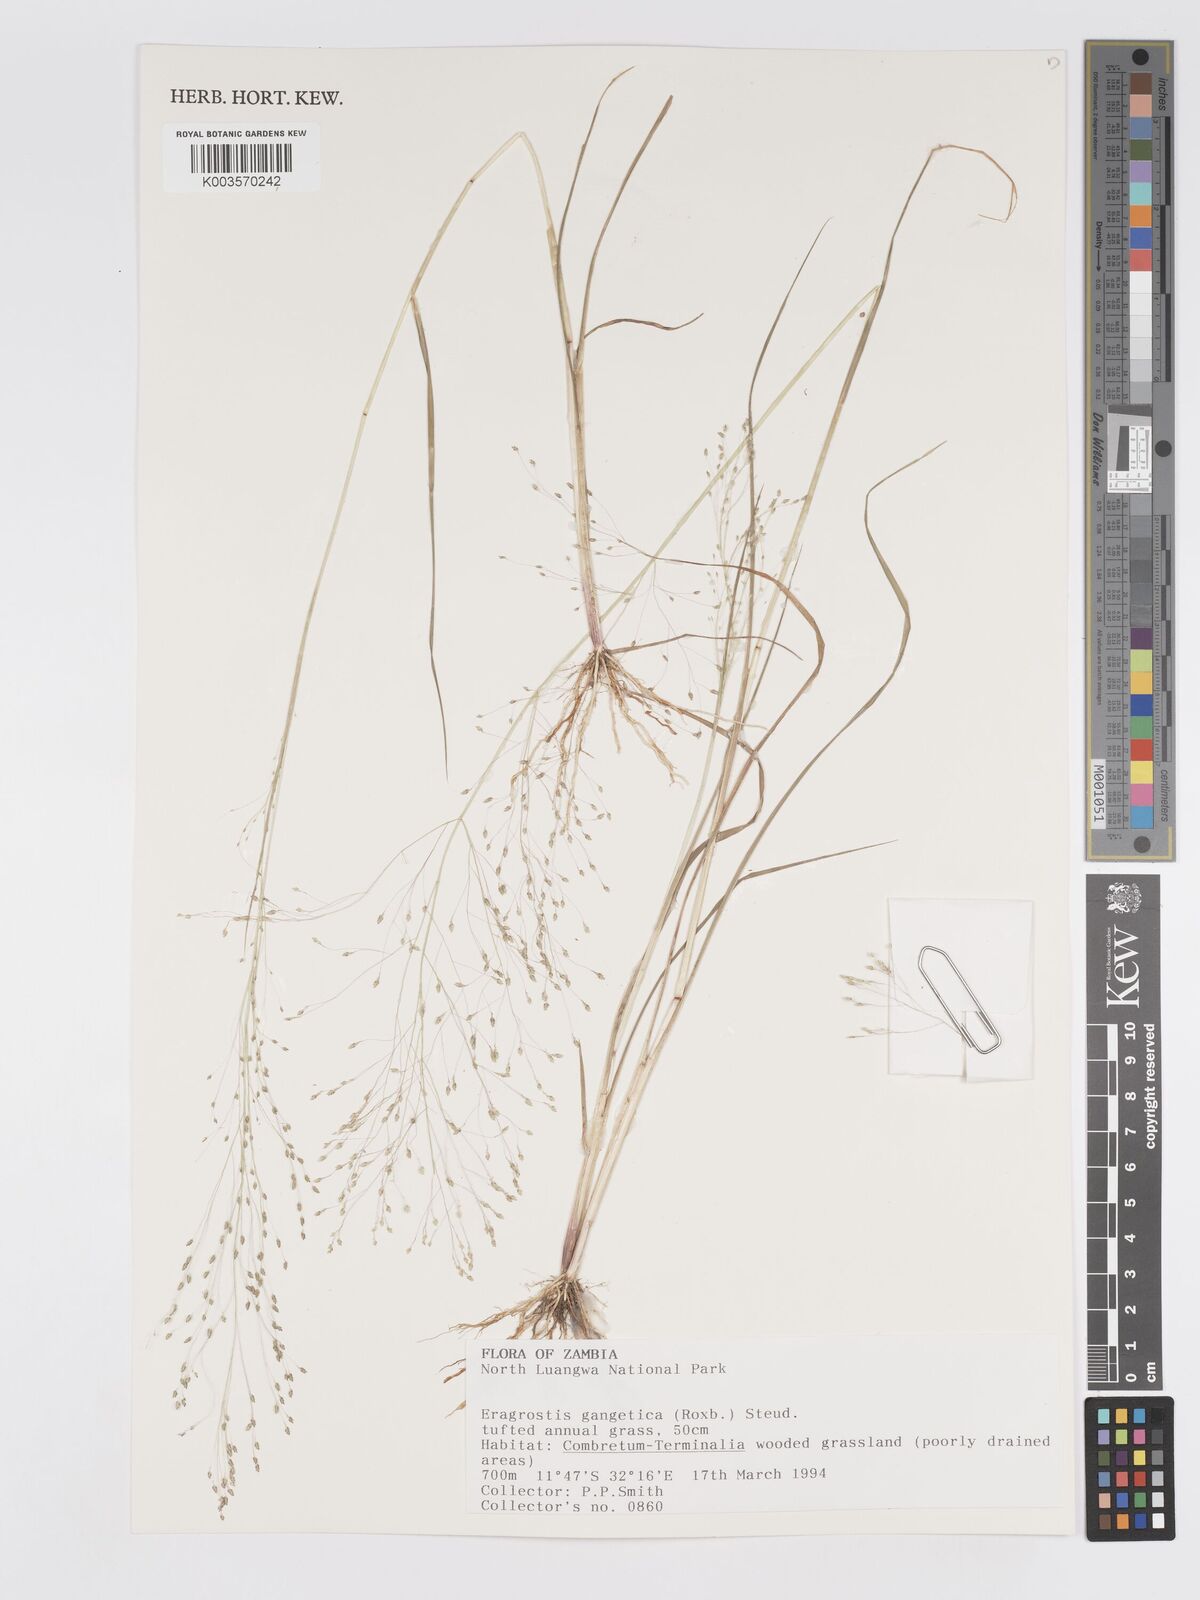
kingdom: Plantae
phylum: Tracheophyta
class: Liliopsida
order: Poales
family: Poaceae
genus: Eragrostis
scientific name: Eragrostis gangetica
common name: Slimflower lovegrass
